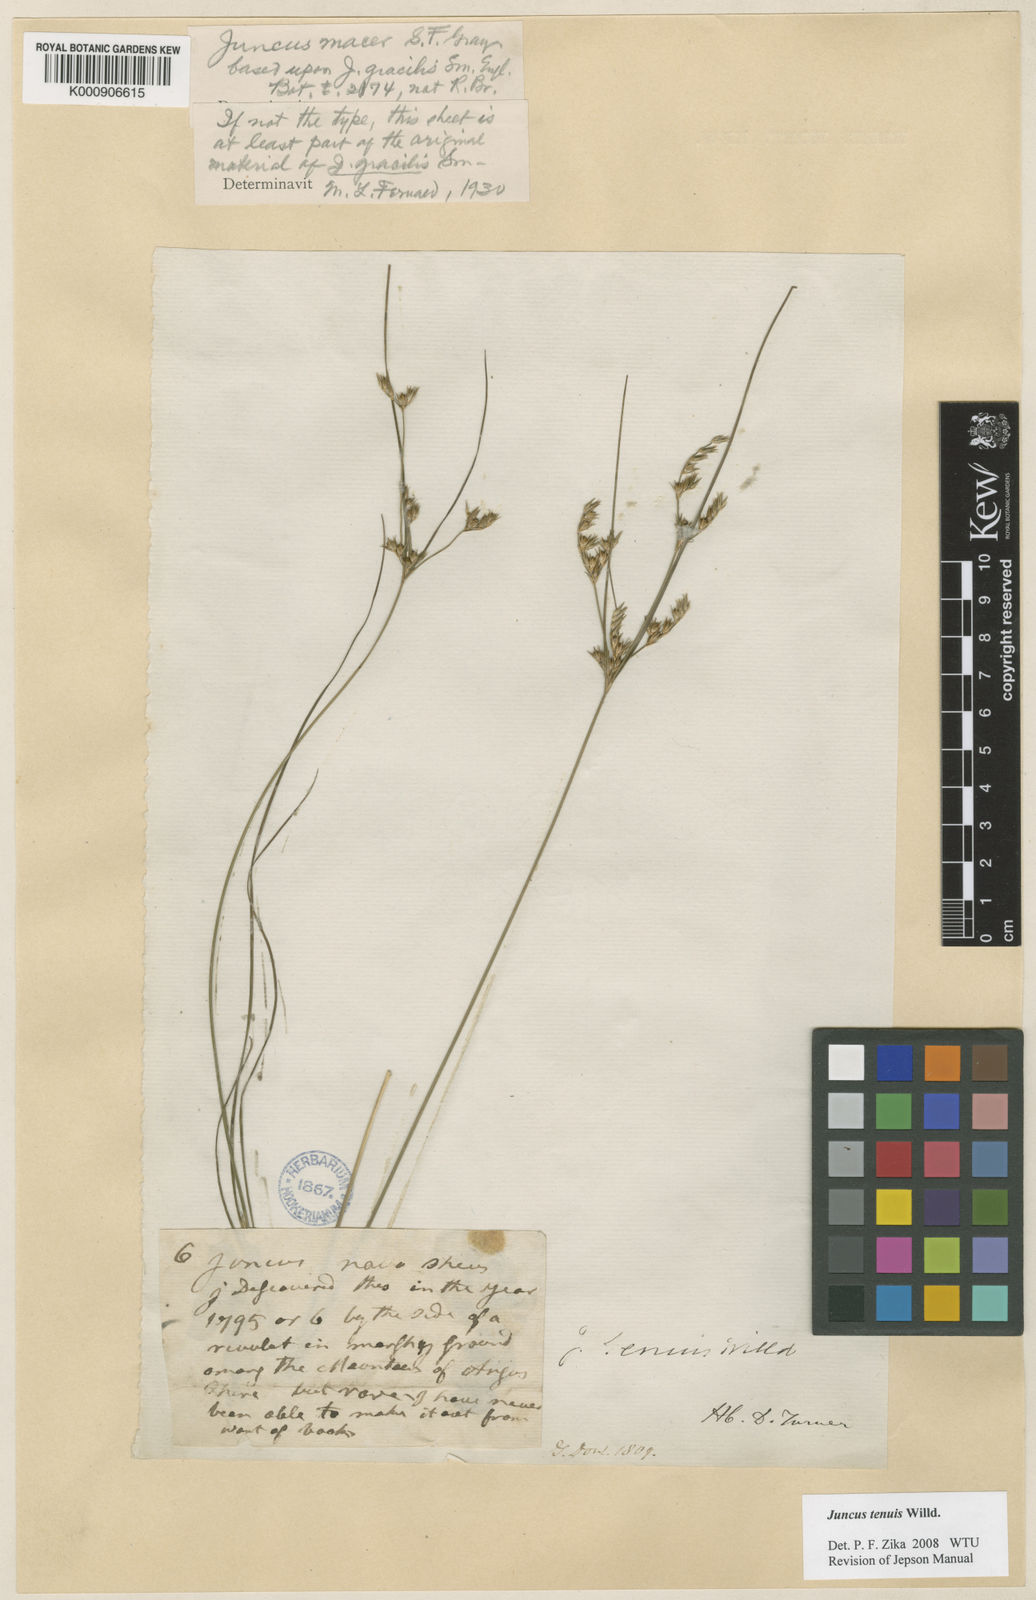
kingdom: Plantae
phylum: Tracheophyta
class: Liliopsida
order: Poales
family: Juncaceae
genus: Juncus
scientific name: Juncus tenuis
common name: Slender rush
